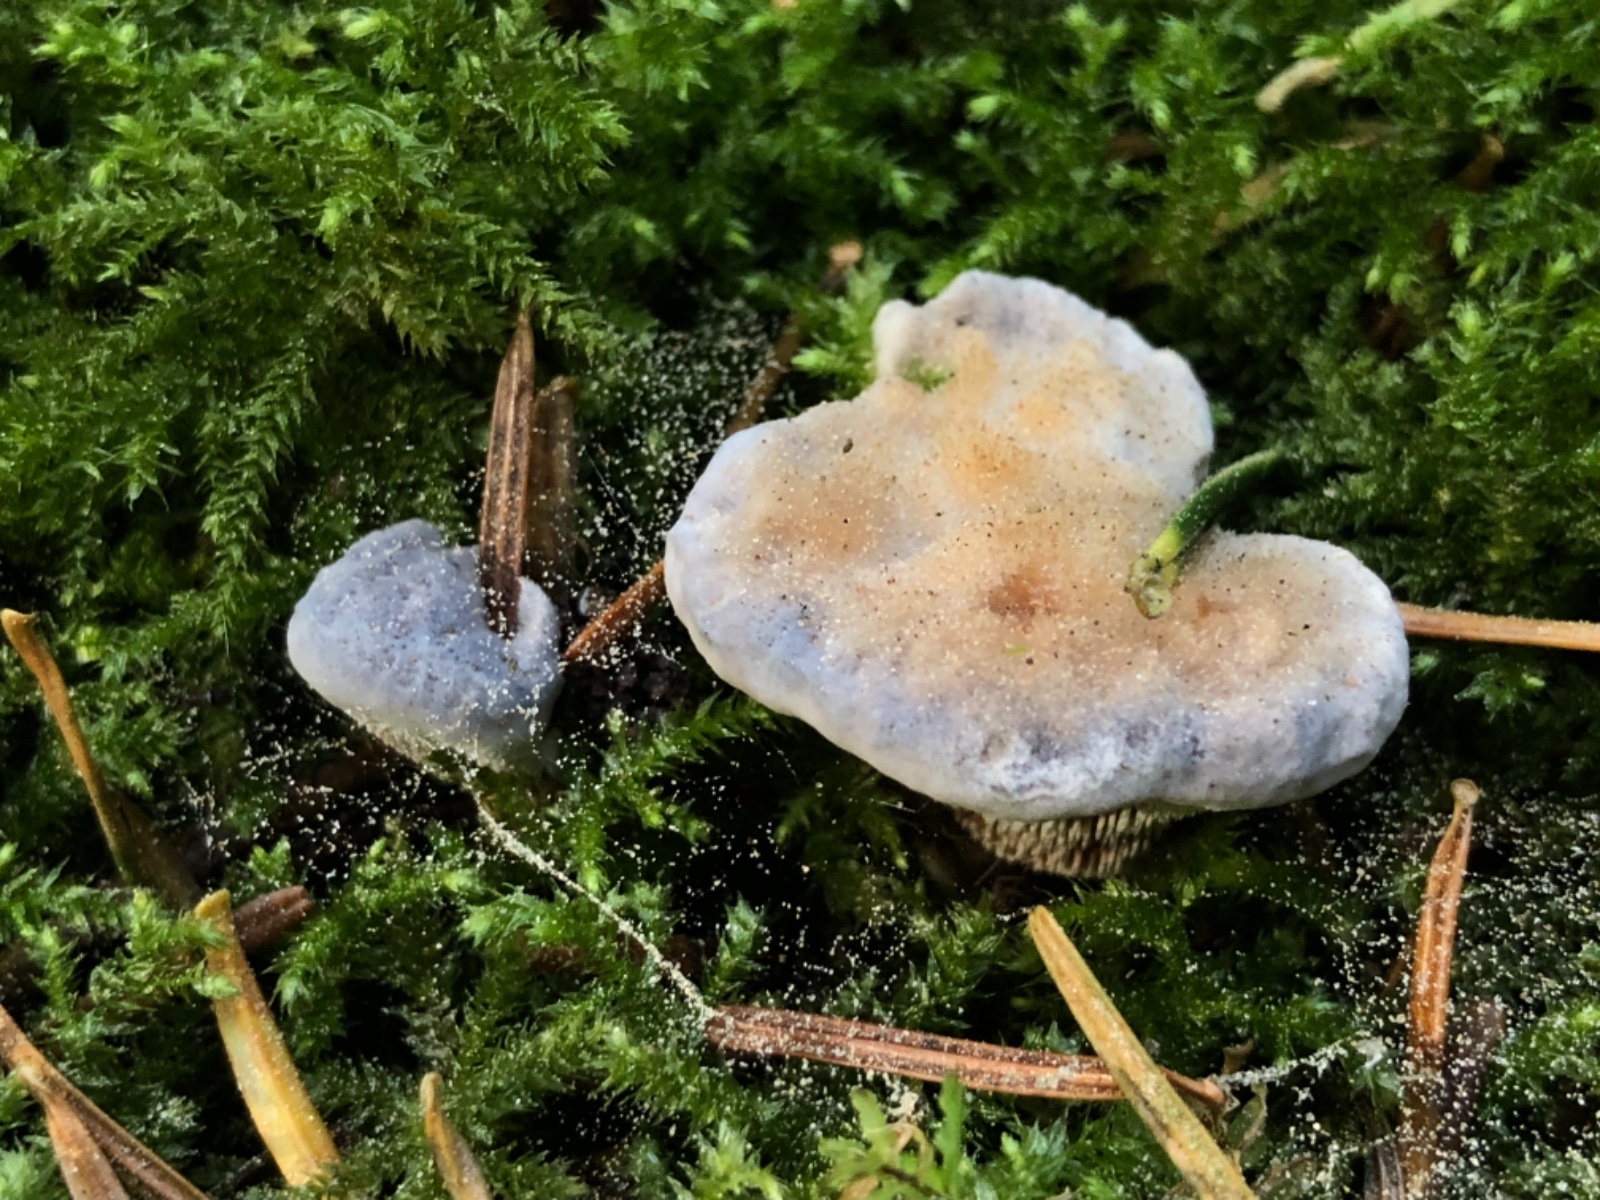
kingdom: Fungi
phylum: Basidiomycota
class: Agaricomycetes
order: Thelephorales
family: Bankeraceae
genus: Hydnellum
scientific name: Hydnellum caeruleum
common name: blålig korkpigsvamp
